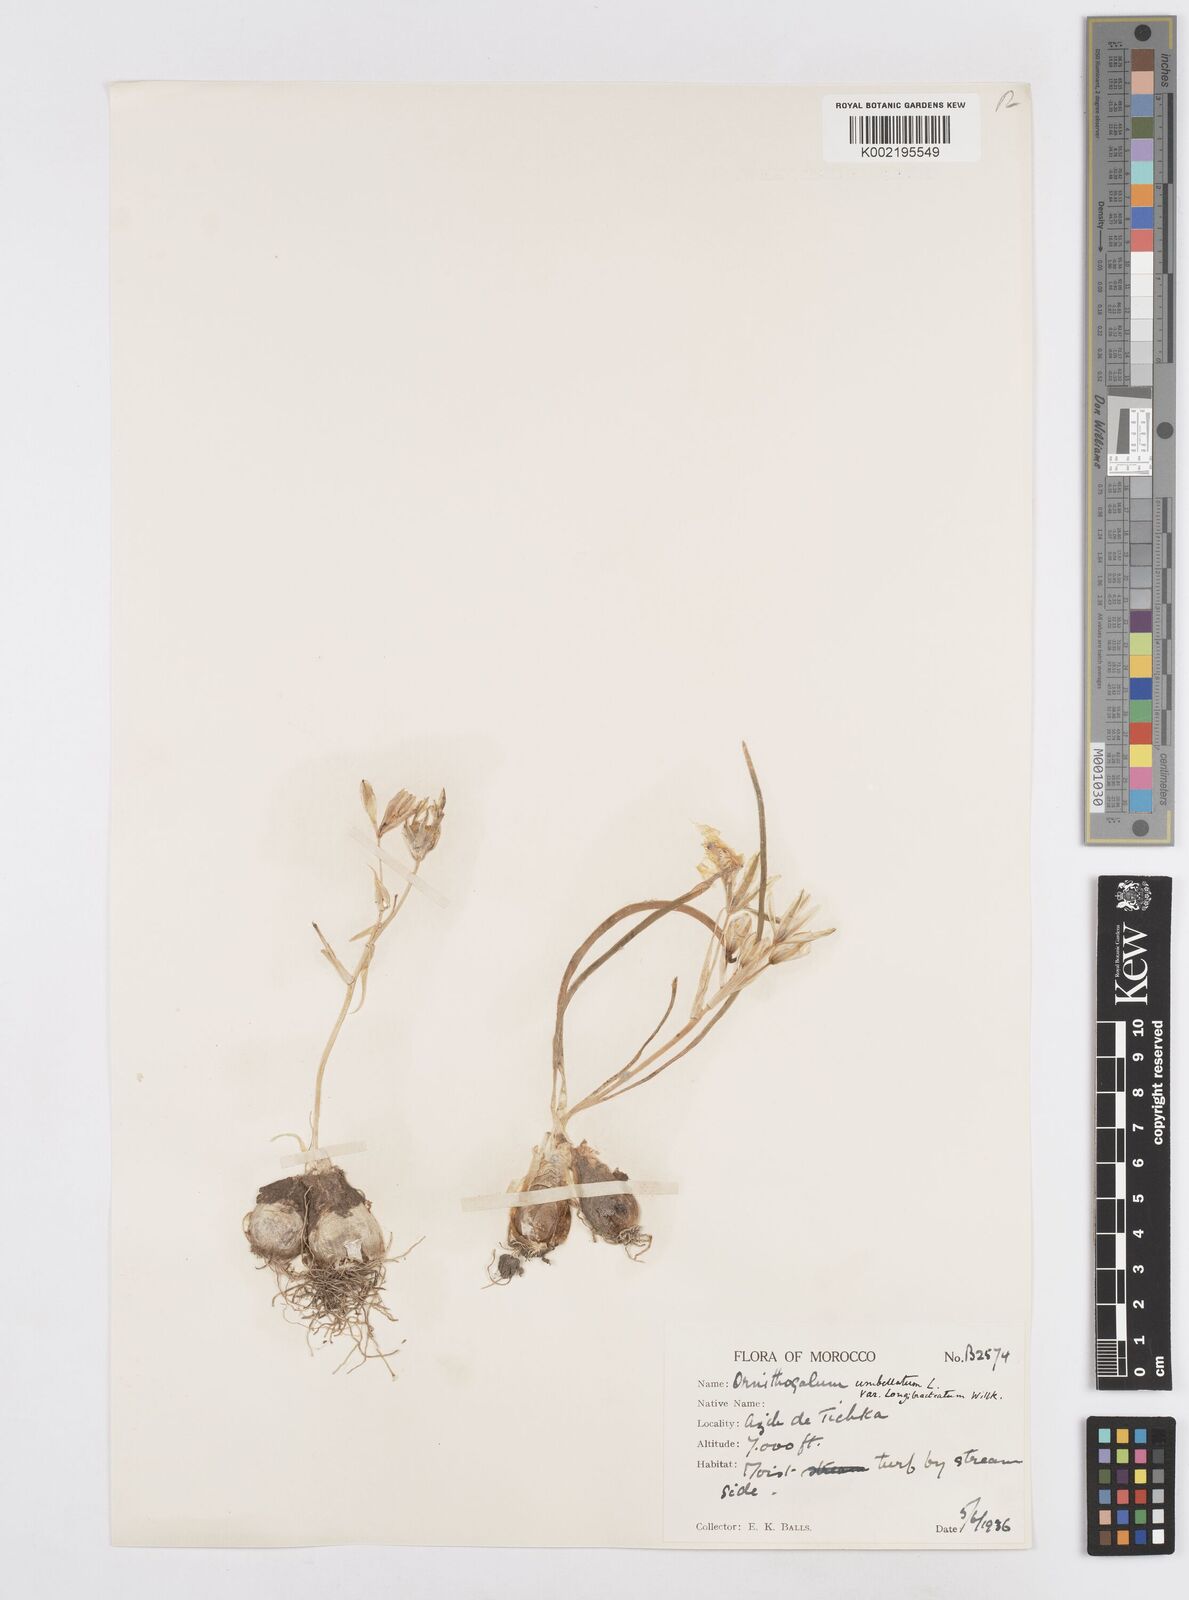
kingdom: Plantae
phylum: Tracheophyta
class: Liliopsida
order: Asparagales
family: Asparagaceae
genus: Ornithogalum
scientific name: Ornithogalum umbellatum
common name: Garden star-of-bethlehem
